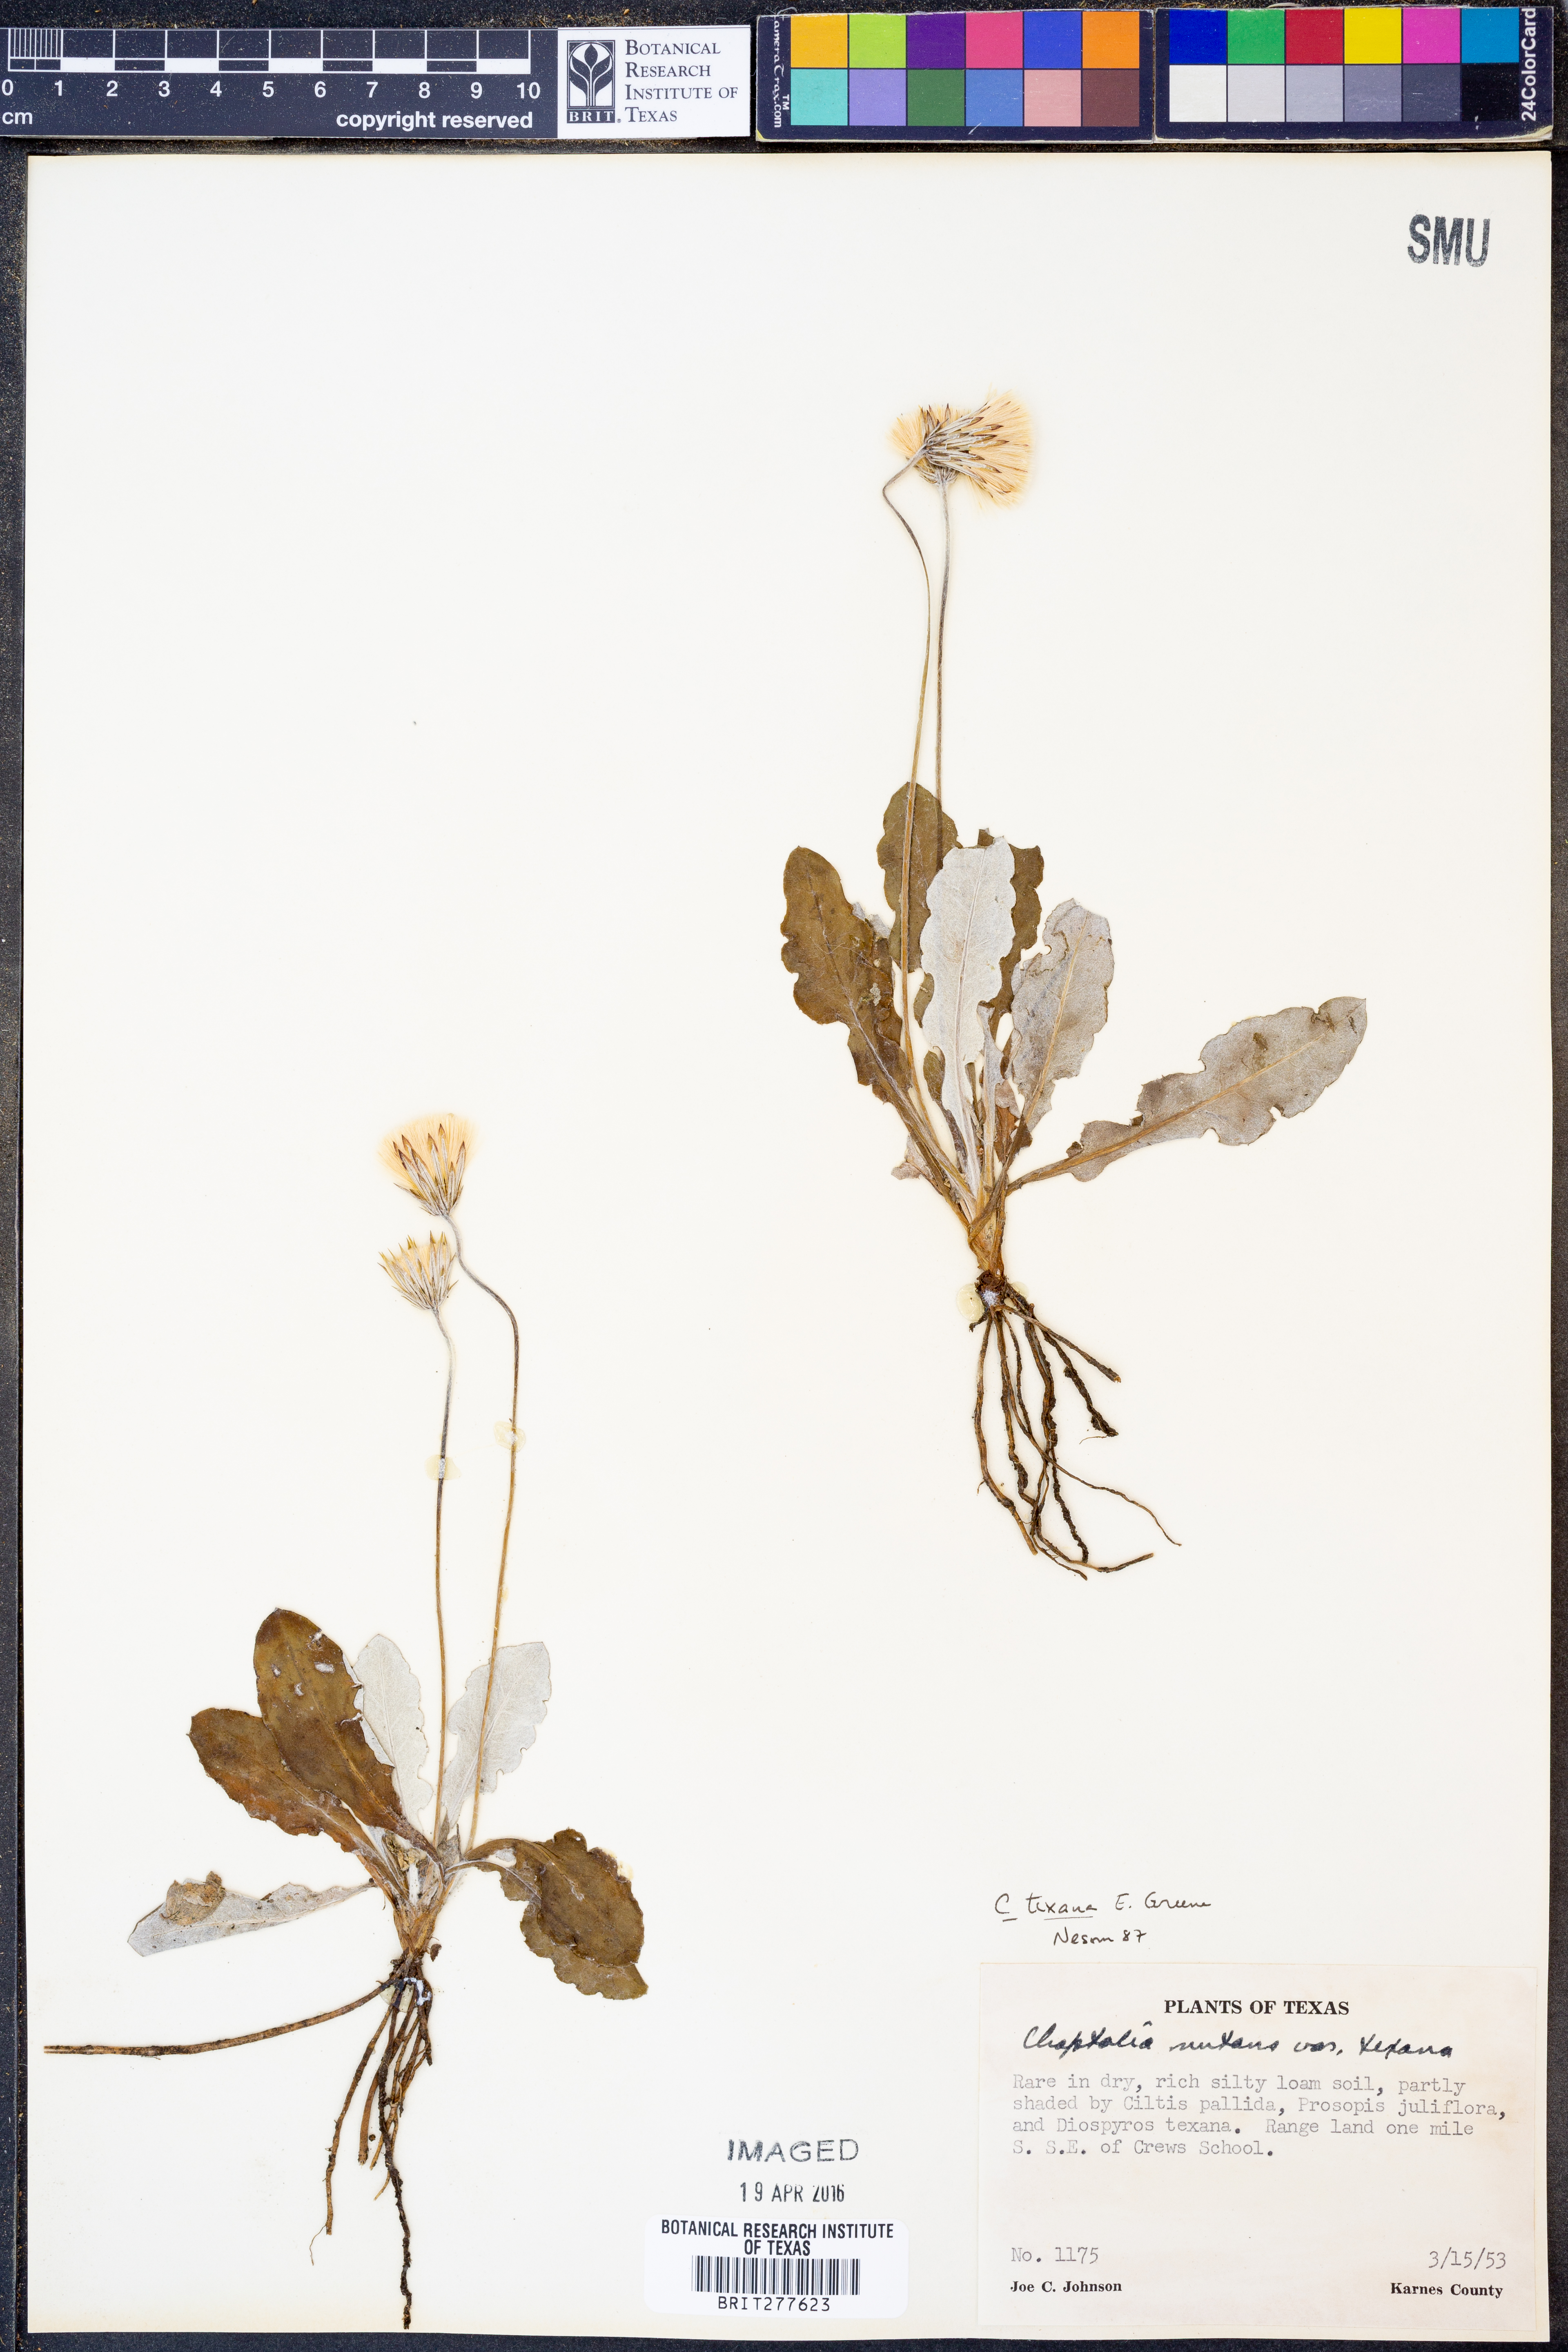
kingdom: Plantae
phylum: Tracheophyta
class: Magnoliopsida
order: Asterales
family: Asteraceae
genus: Chaptalia
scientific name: Chaptalia texana
